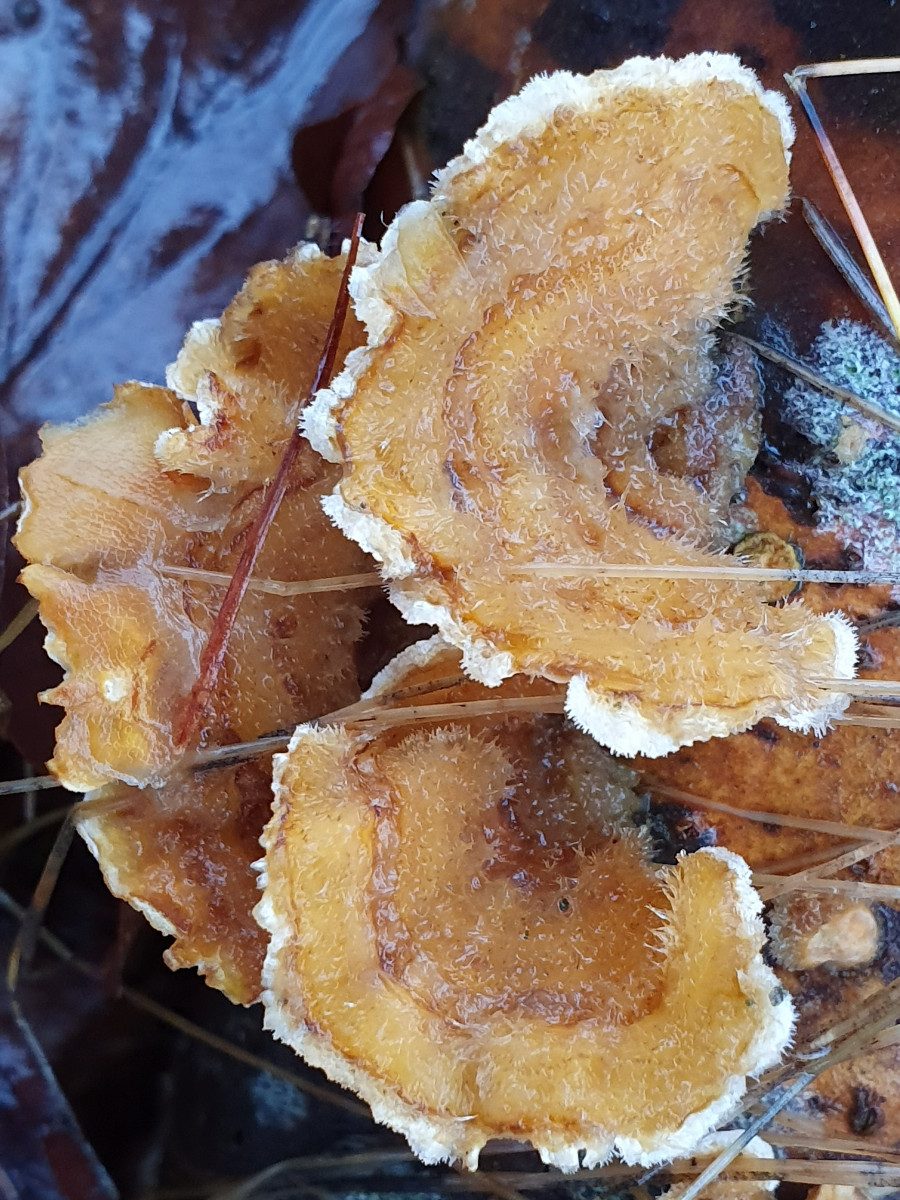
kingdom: Fungi
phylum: Basidiomycota
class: Agaricomycetes
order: Russulales
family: Stereaceae
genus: Stereum
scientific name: Stereum hirsutum
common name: håret lædersvamp
